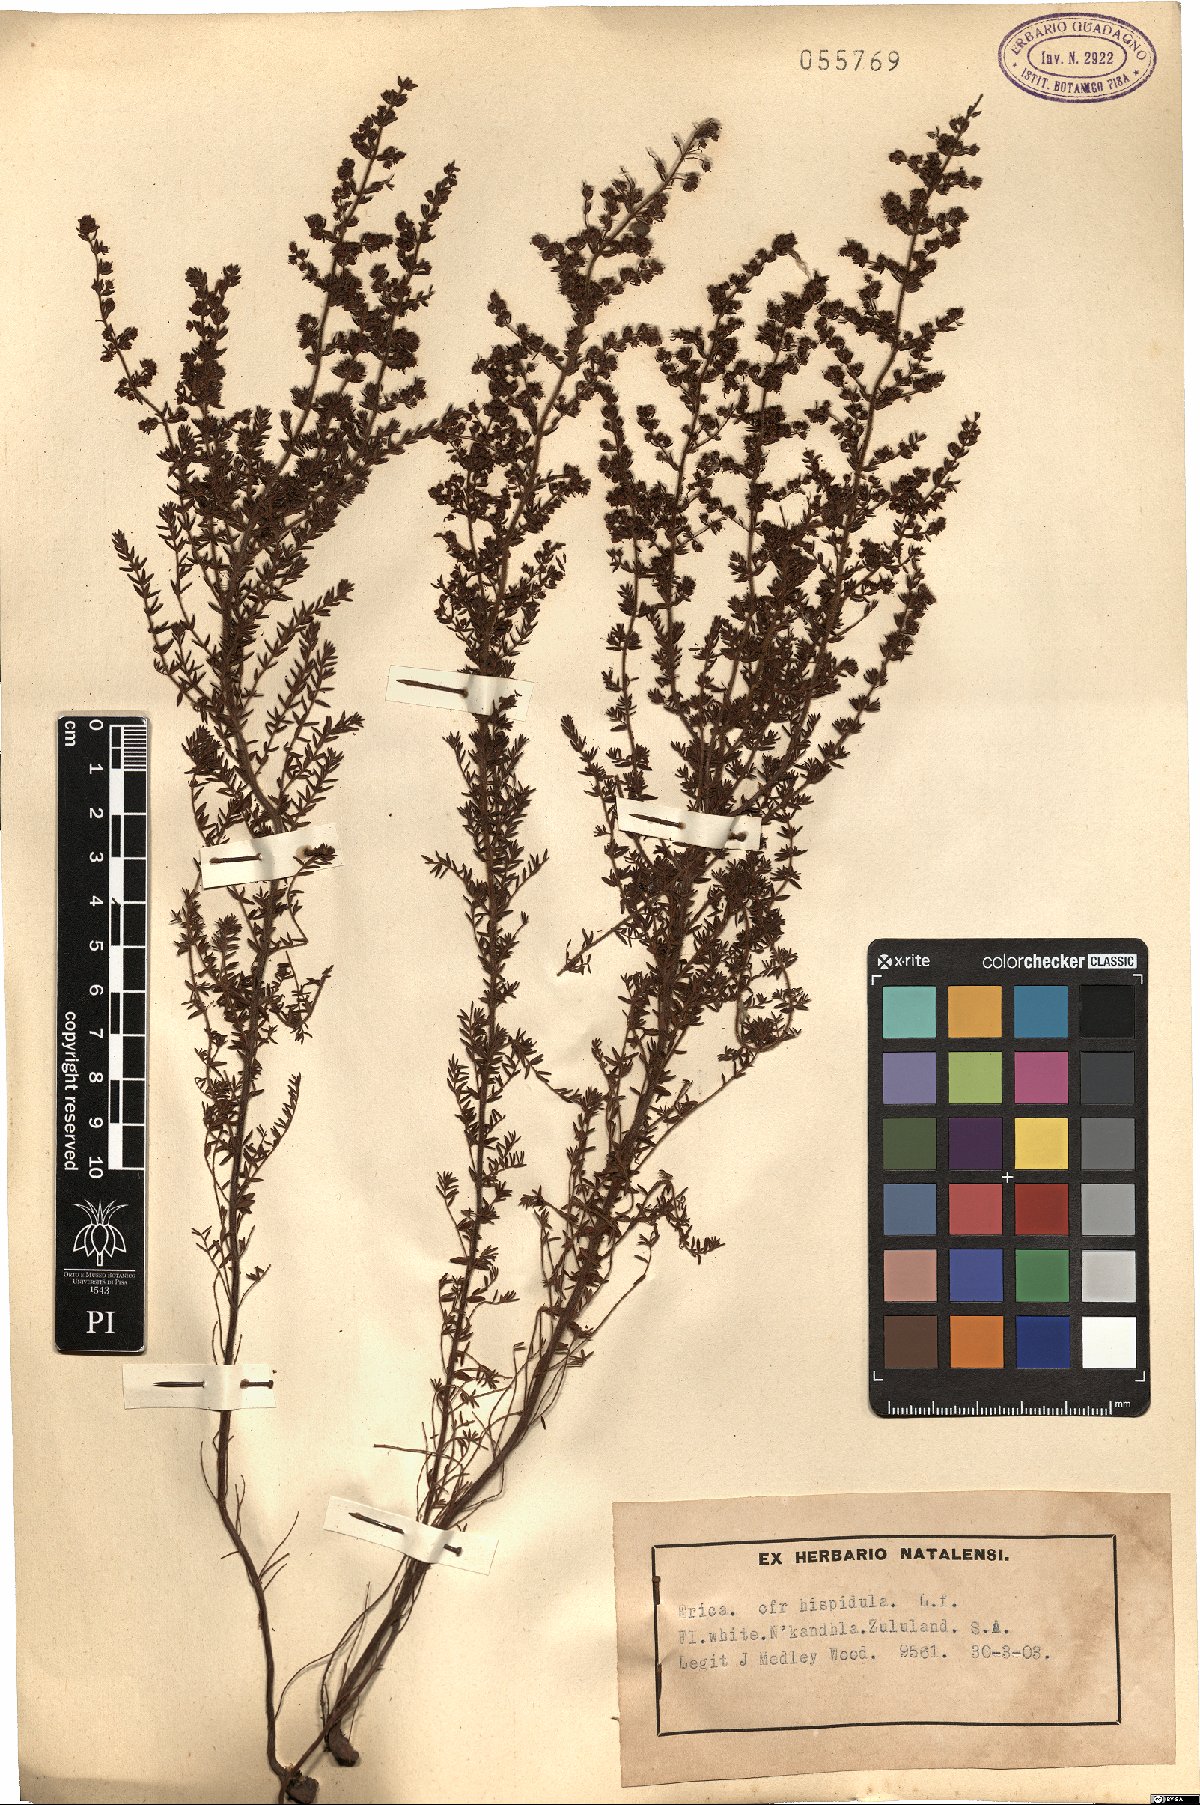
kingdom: Plantae
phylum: Tracheophyta
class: Magnoliopsida
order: Ericales
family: Ericaceae
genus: Erica
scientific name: Erica hispidula
